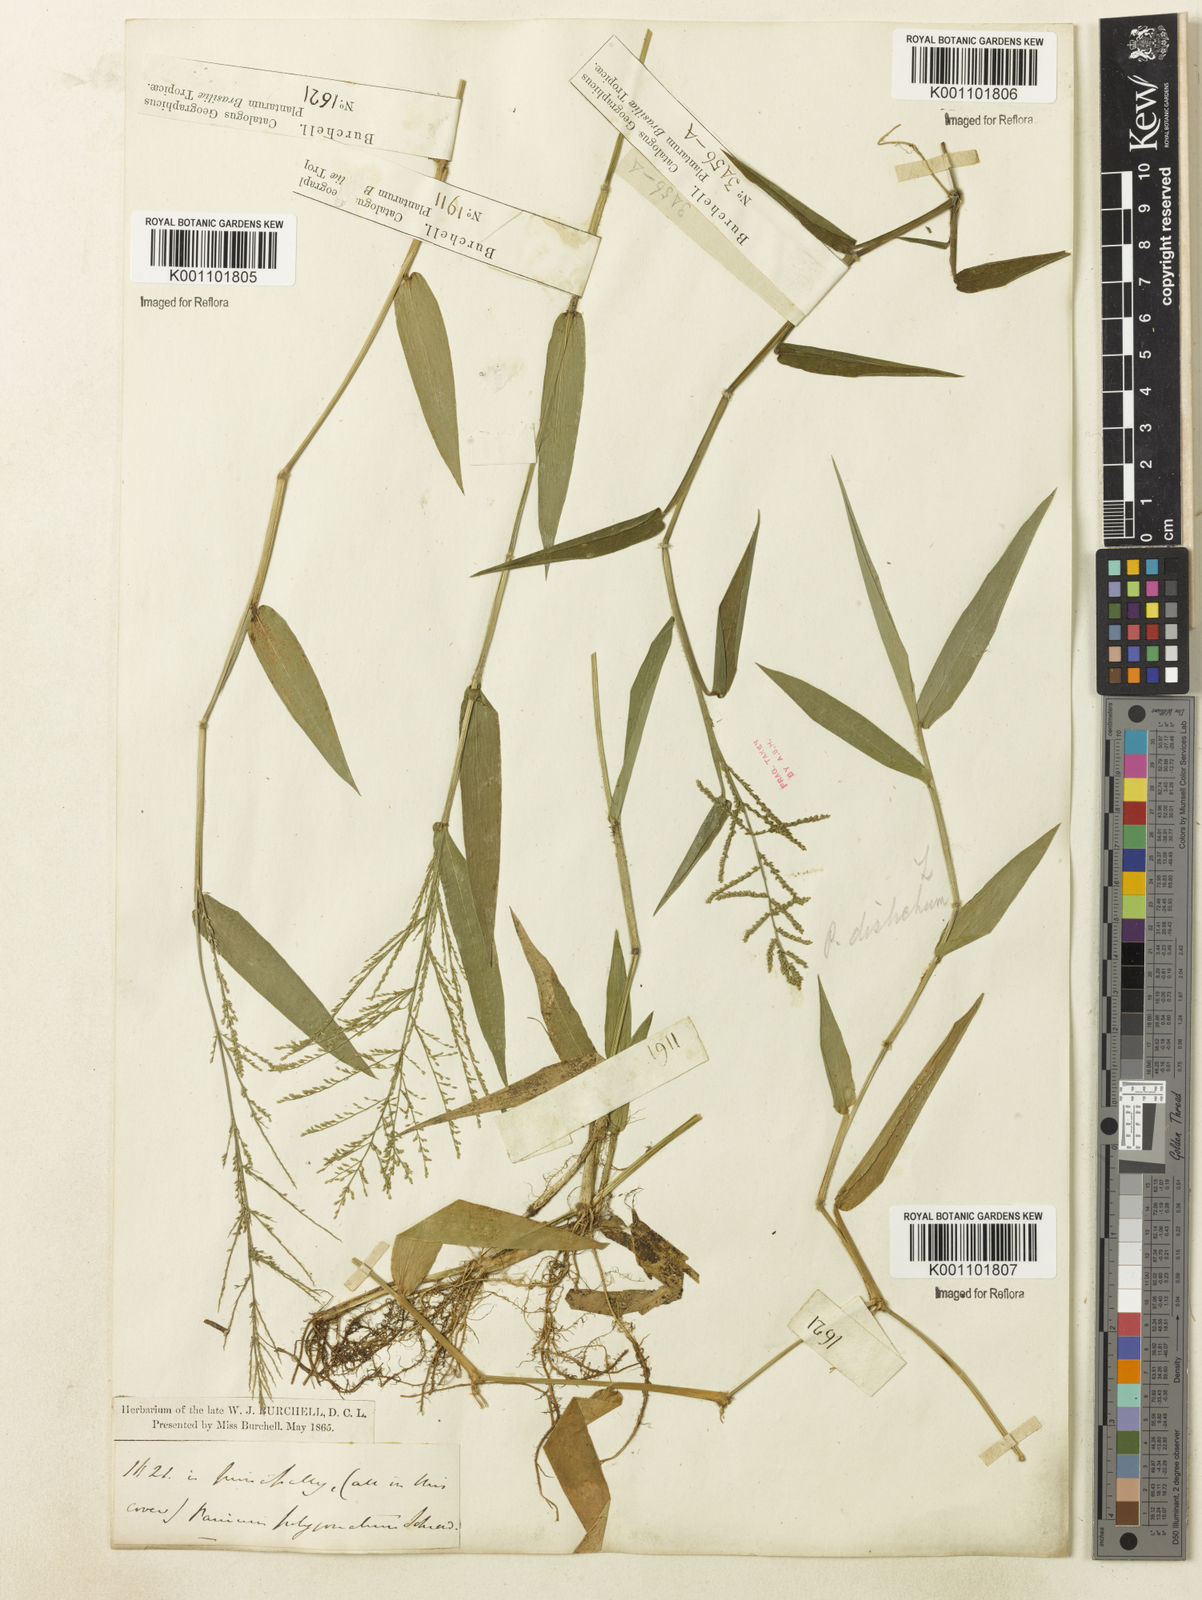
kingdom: Plantae
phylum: Tracheophyta
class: Liliopsida
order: Poales
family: Poaceae
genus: Rugoloa
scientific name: Rugoloa polygonata
